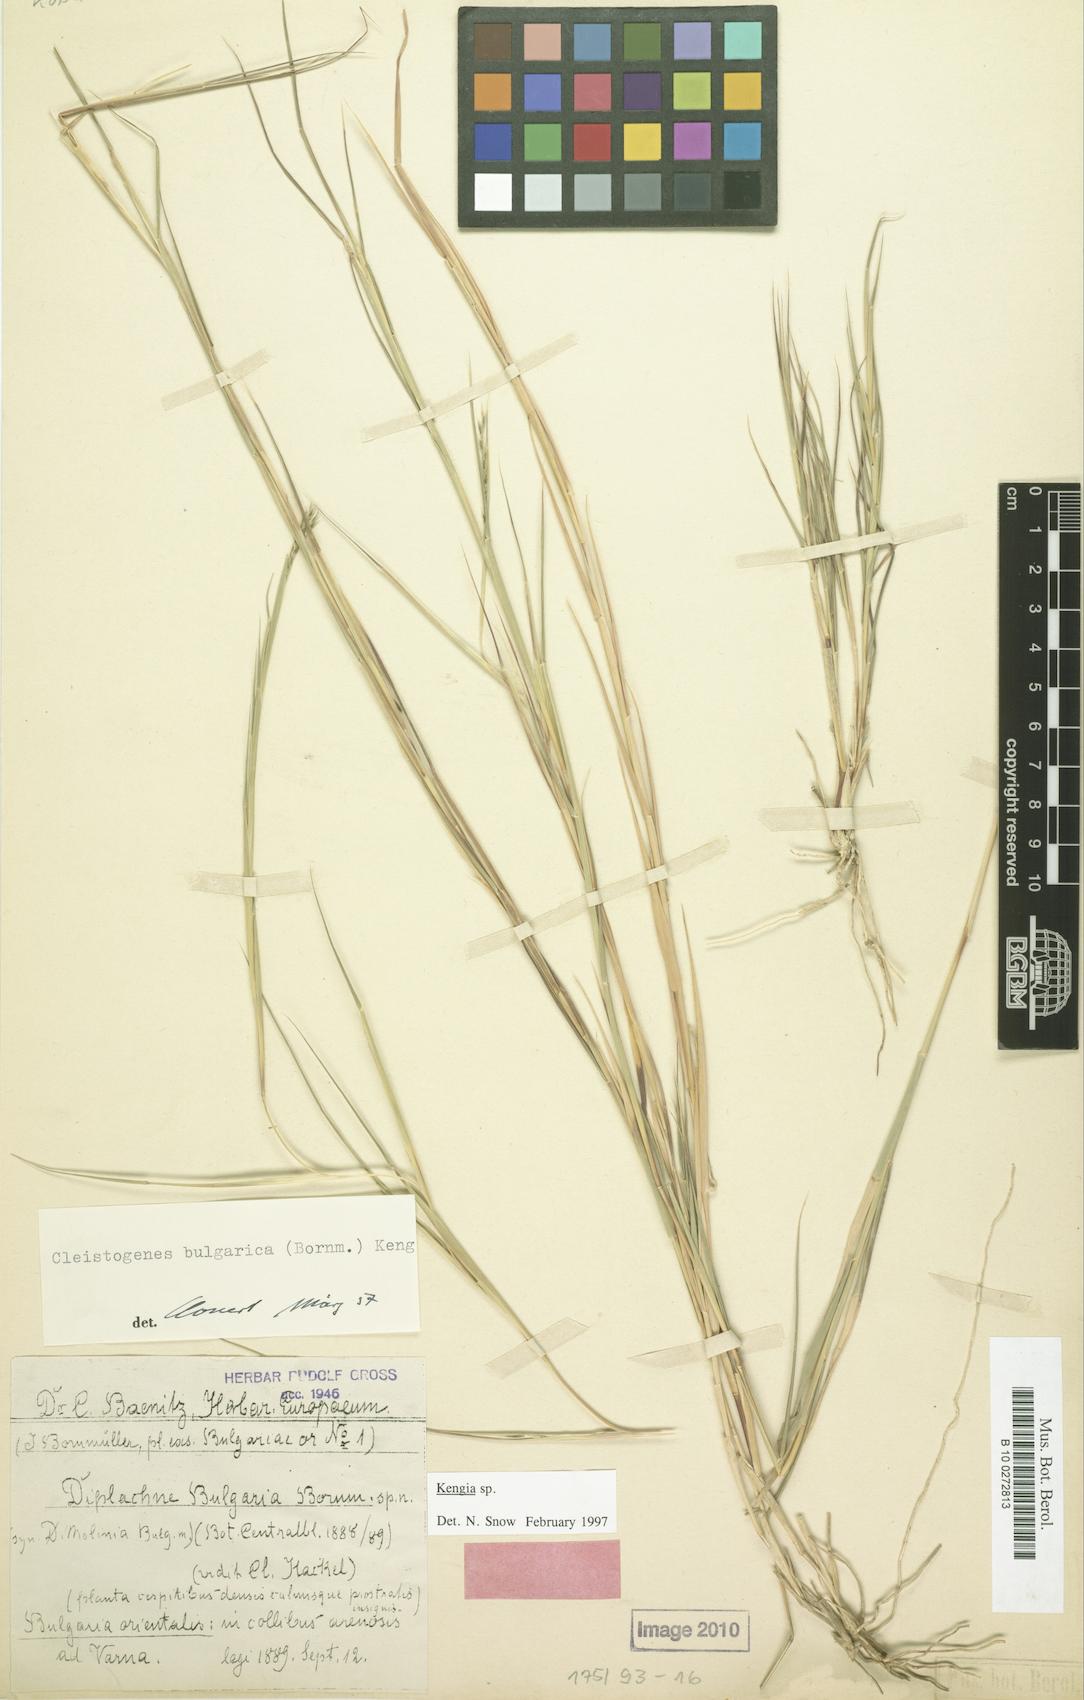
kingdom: Plantae
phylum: Tracheophyta
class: Liliopsida
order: Poales
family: Poaceae
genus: Cleistogenes
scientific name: Cleistogenes serotina
